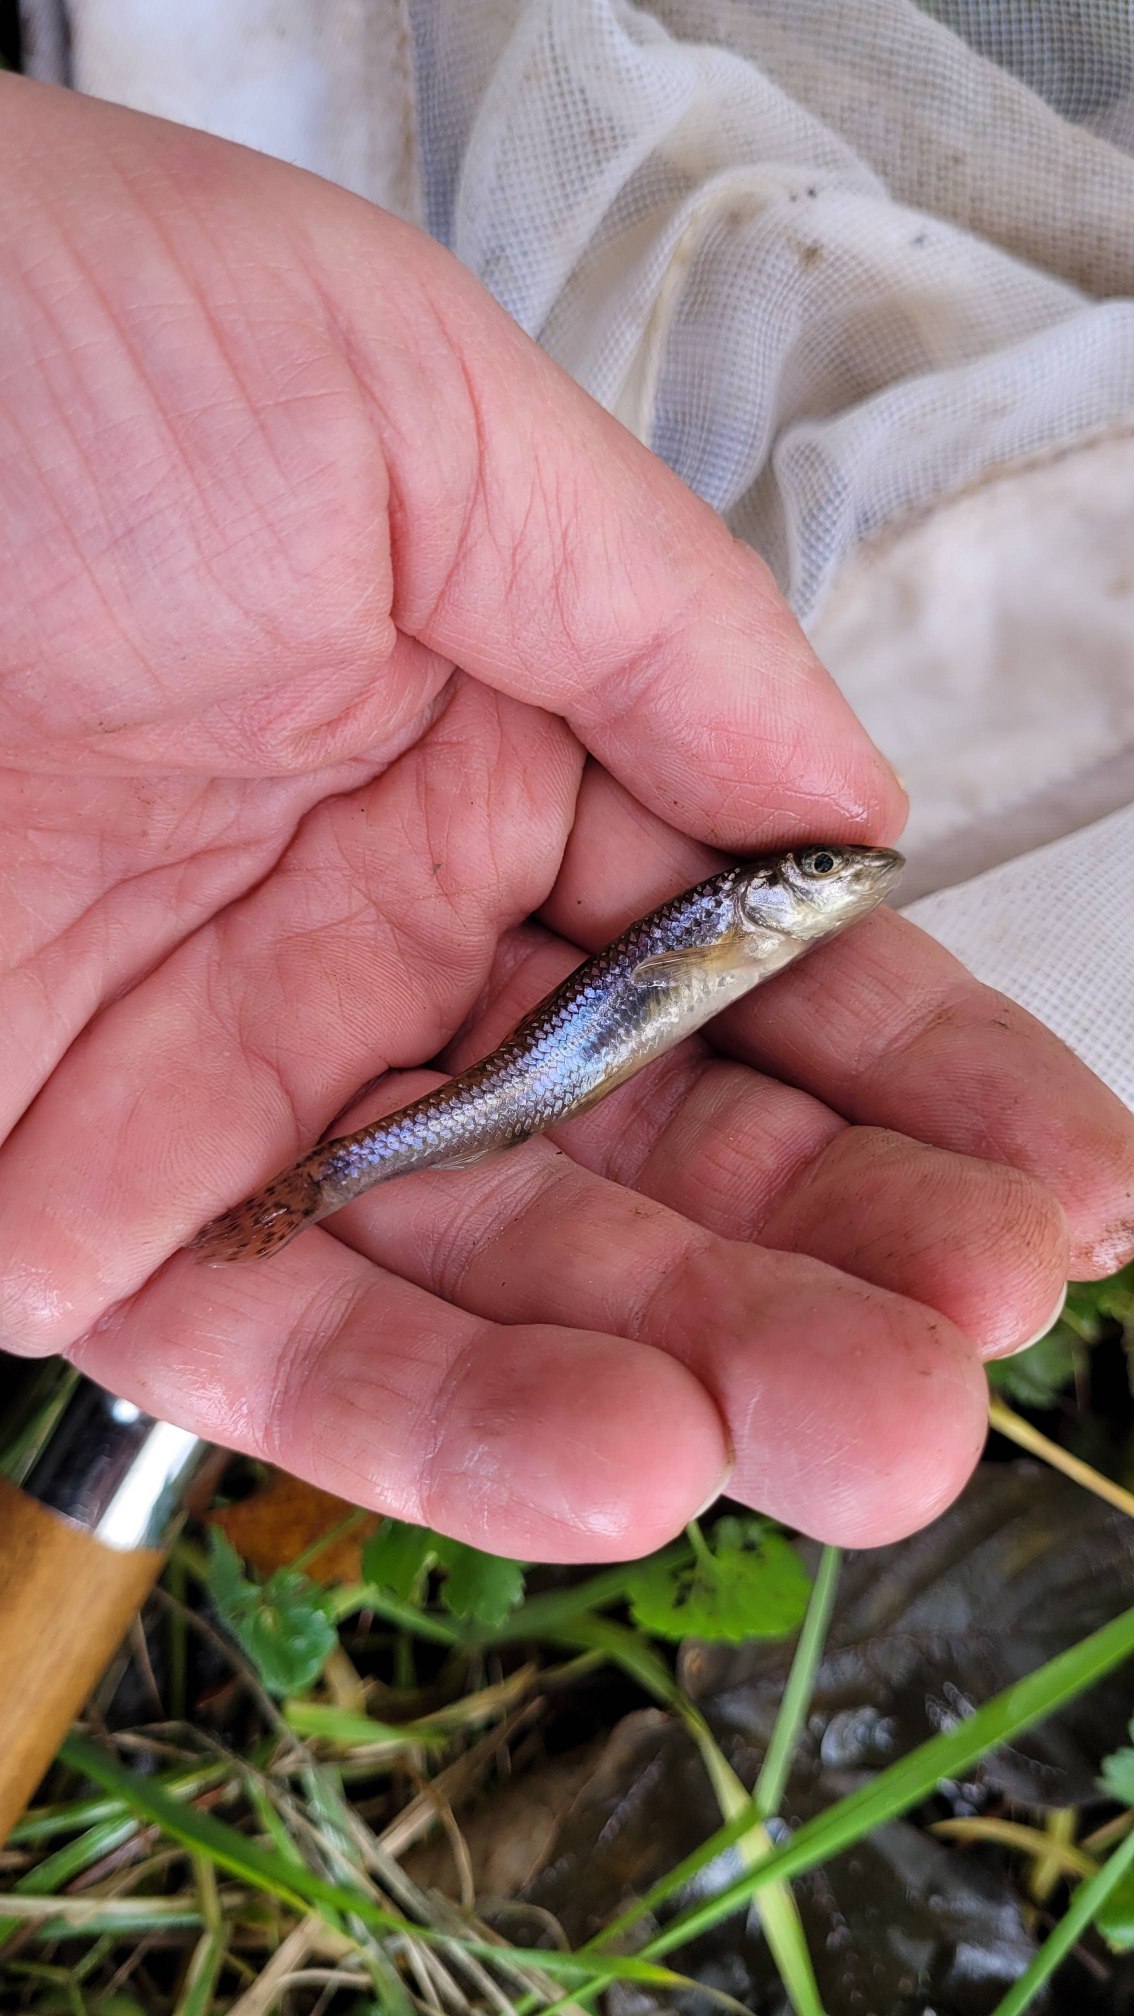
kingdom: Animalia
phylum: Chordata
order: Cypriniformes
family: Cyprinidae
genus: Gobio
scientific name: Gobio gobio
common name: Grundling
